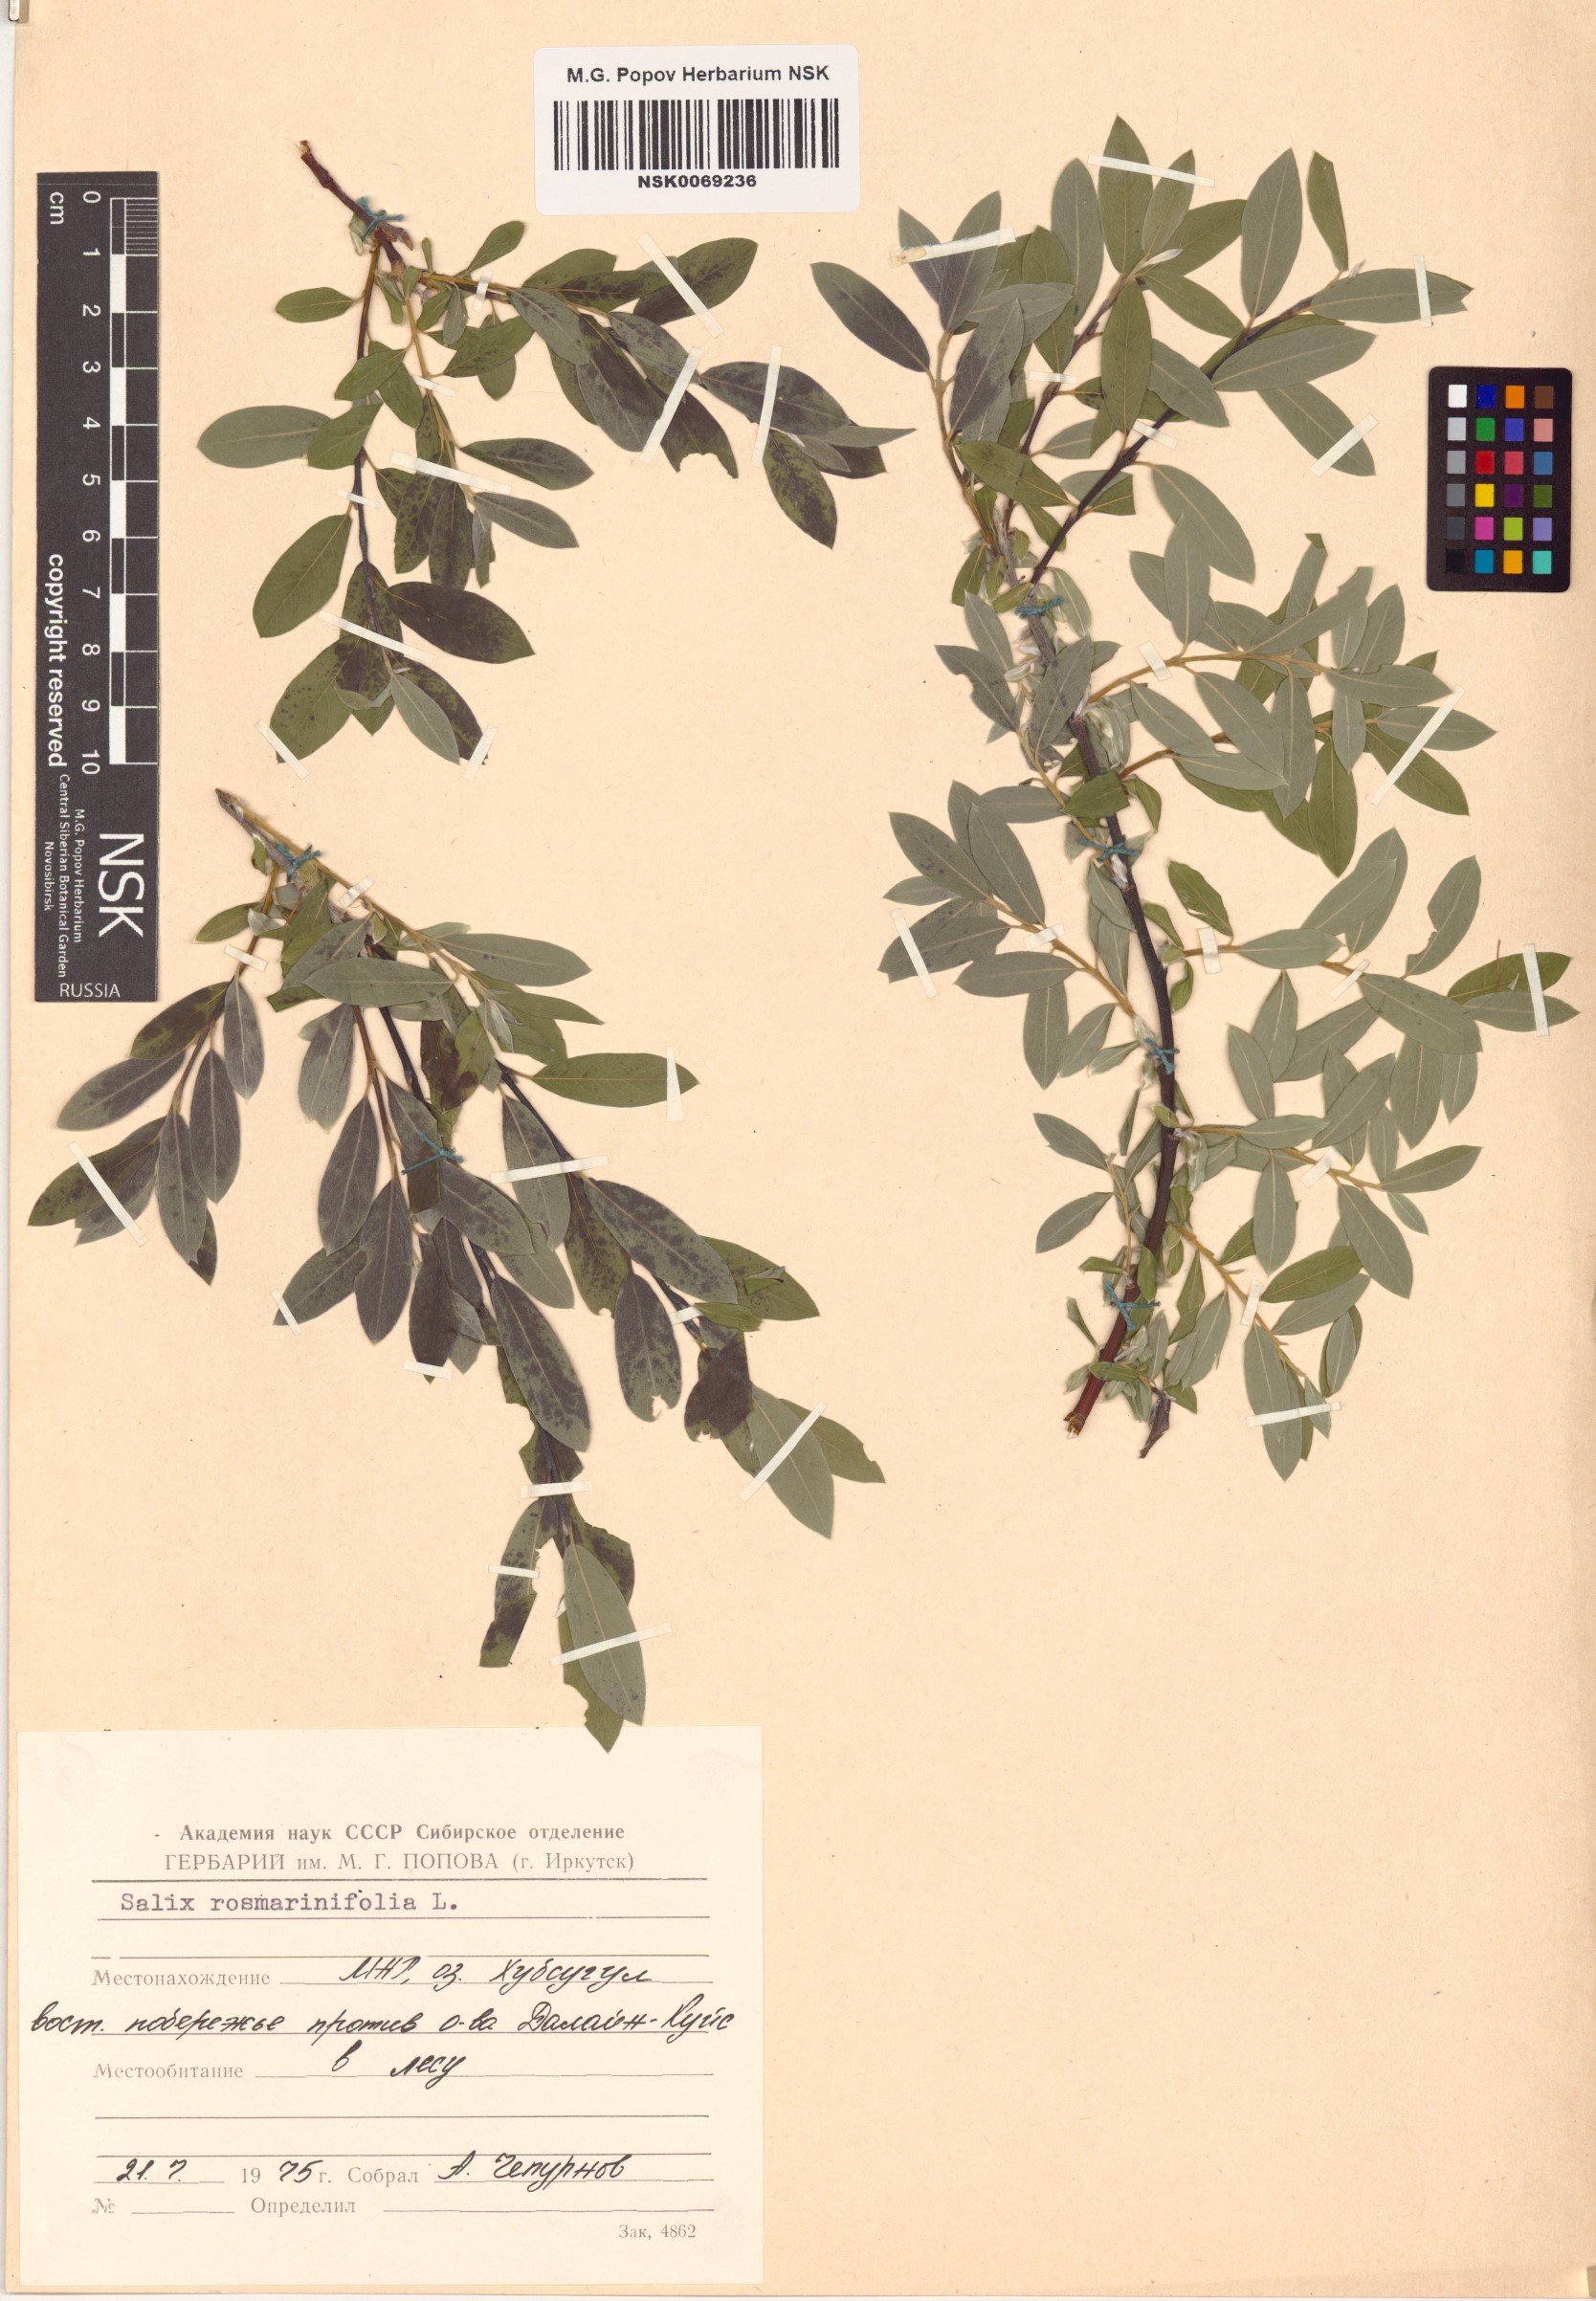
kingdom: Plantae
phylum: Tracheophyta
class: Magnoliopsida
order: Malpighiales
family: Salicaceae
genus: Salix
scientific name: Salix rosmarinifolia
